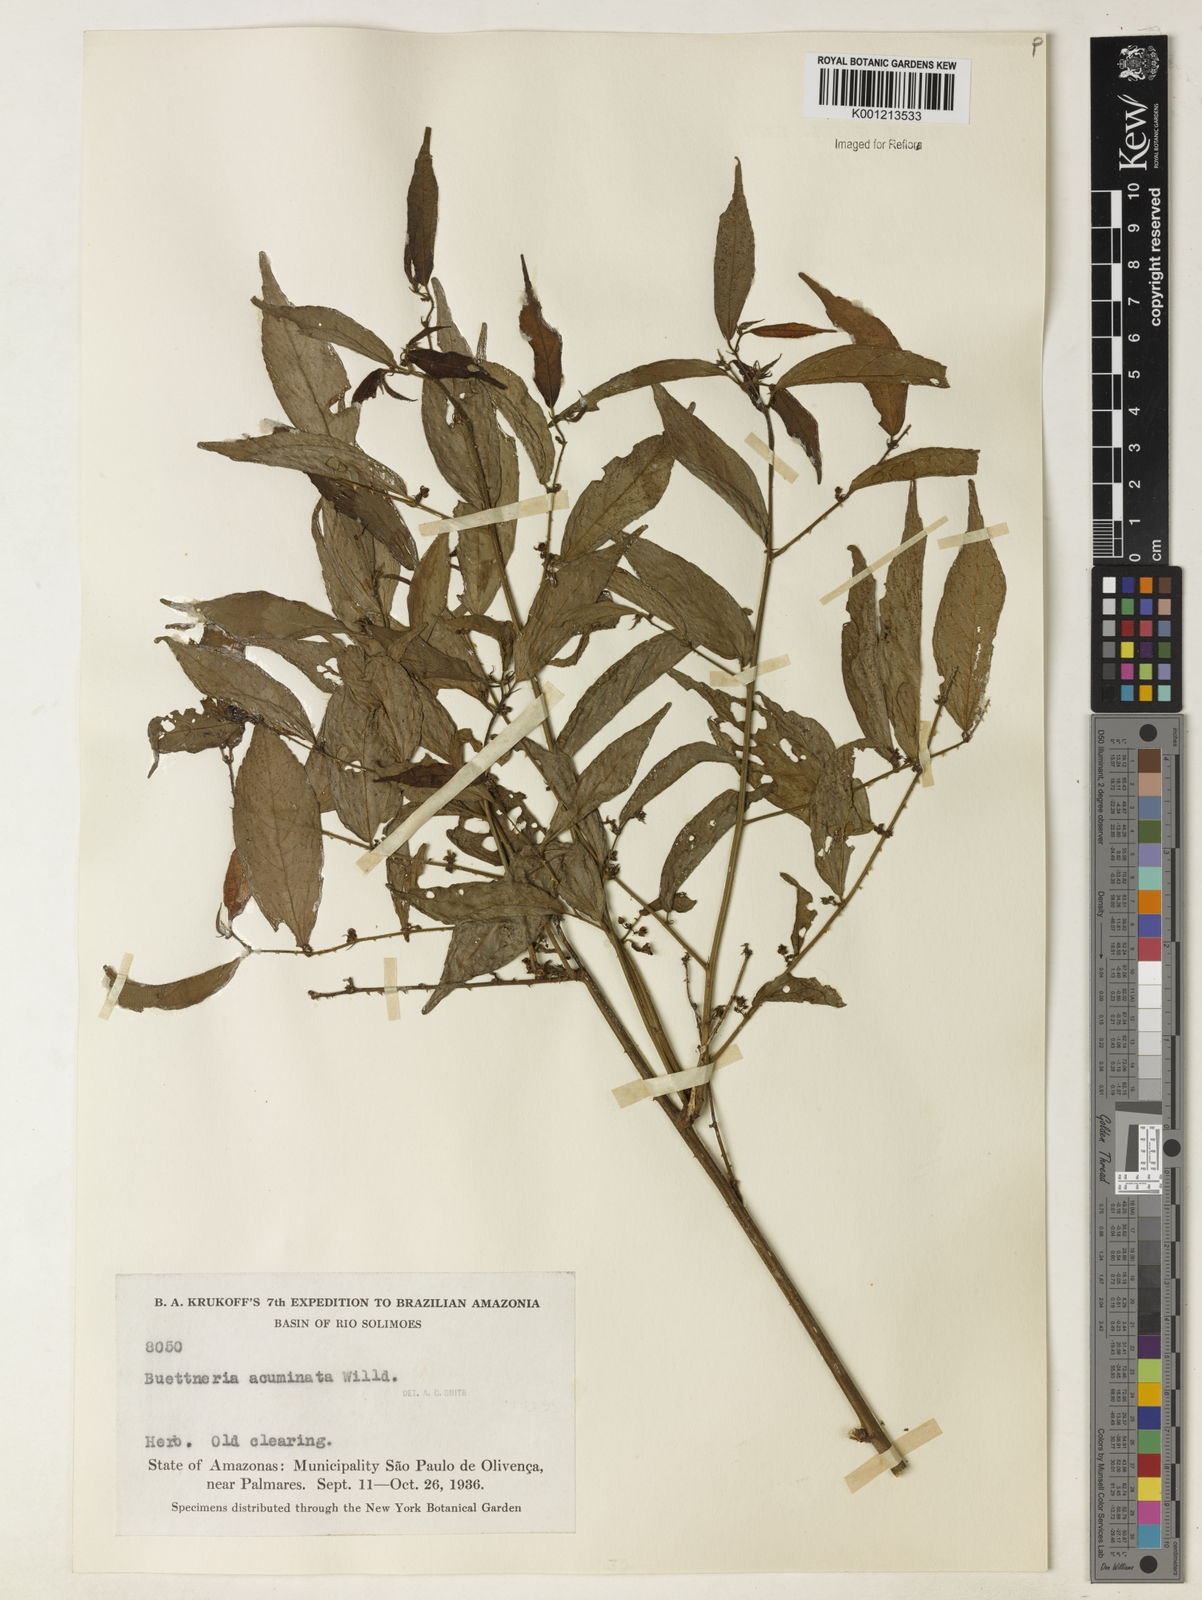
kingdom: Plantae
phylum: Tracheophyta
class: Magnoliopsida
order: Malvales
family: Malvaceae
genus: Byttneria
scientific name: Byttneria aculeata
